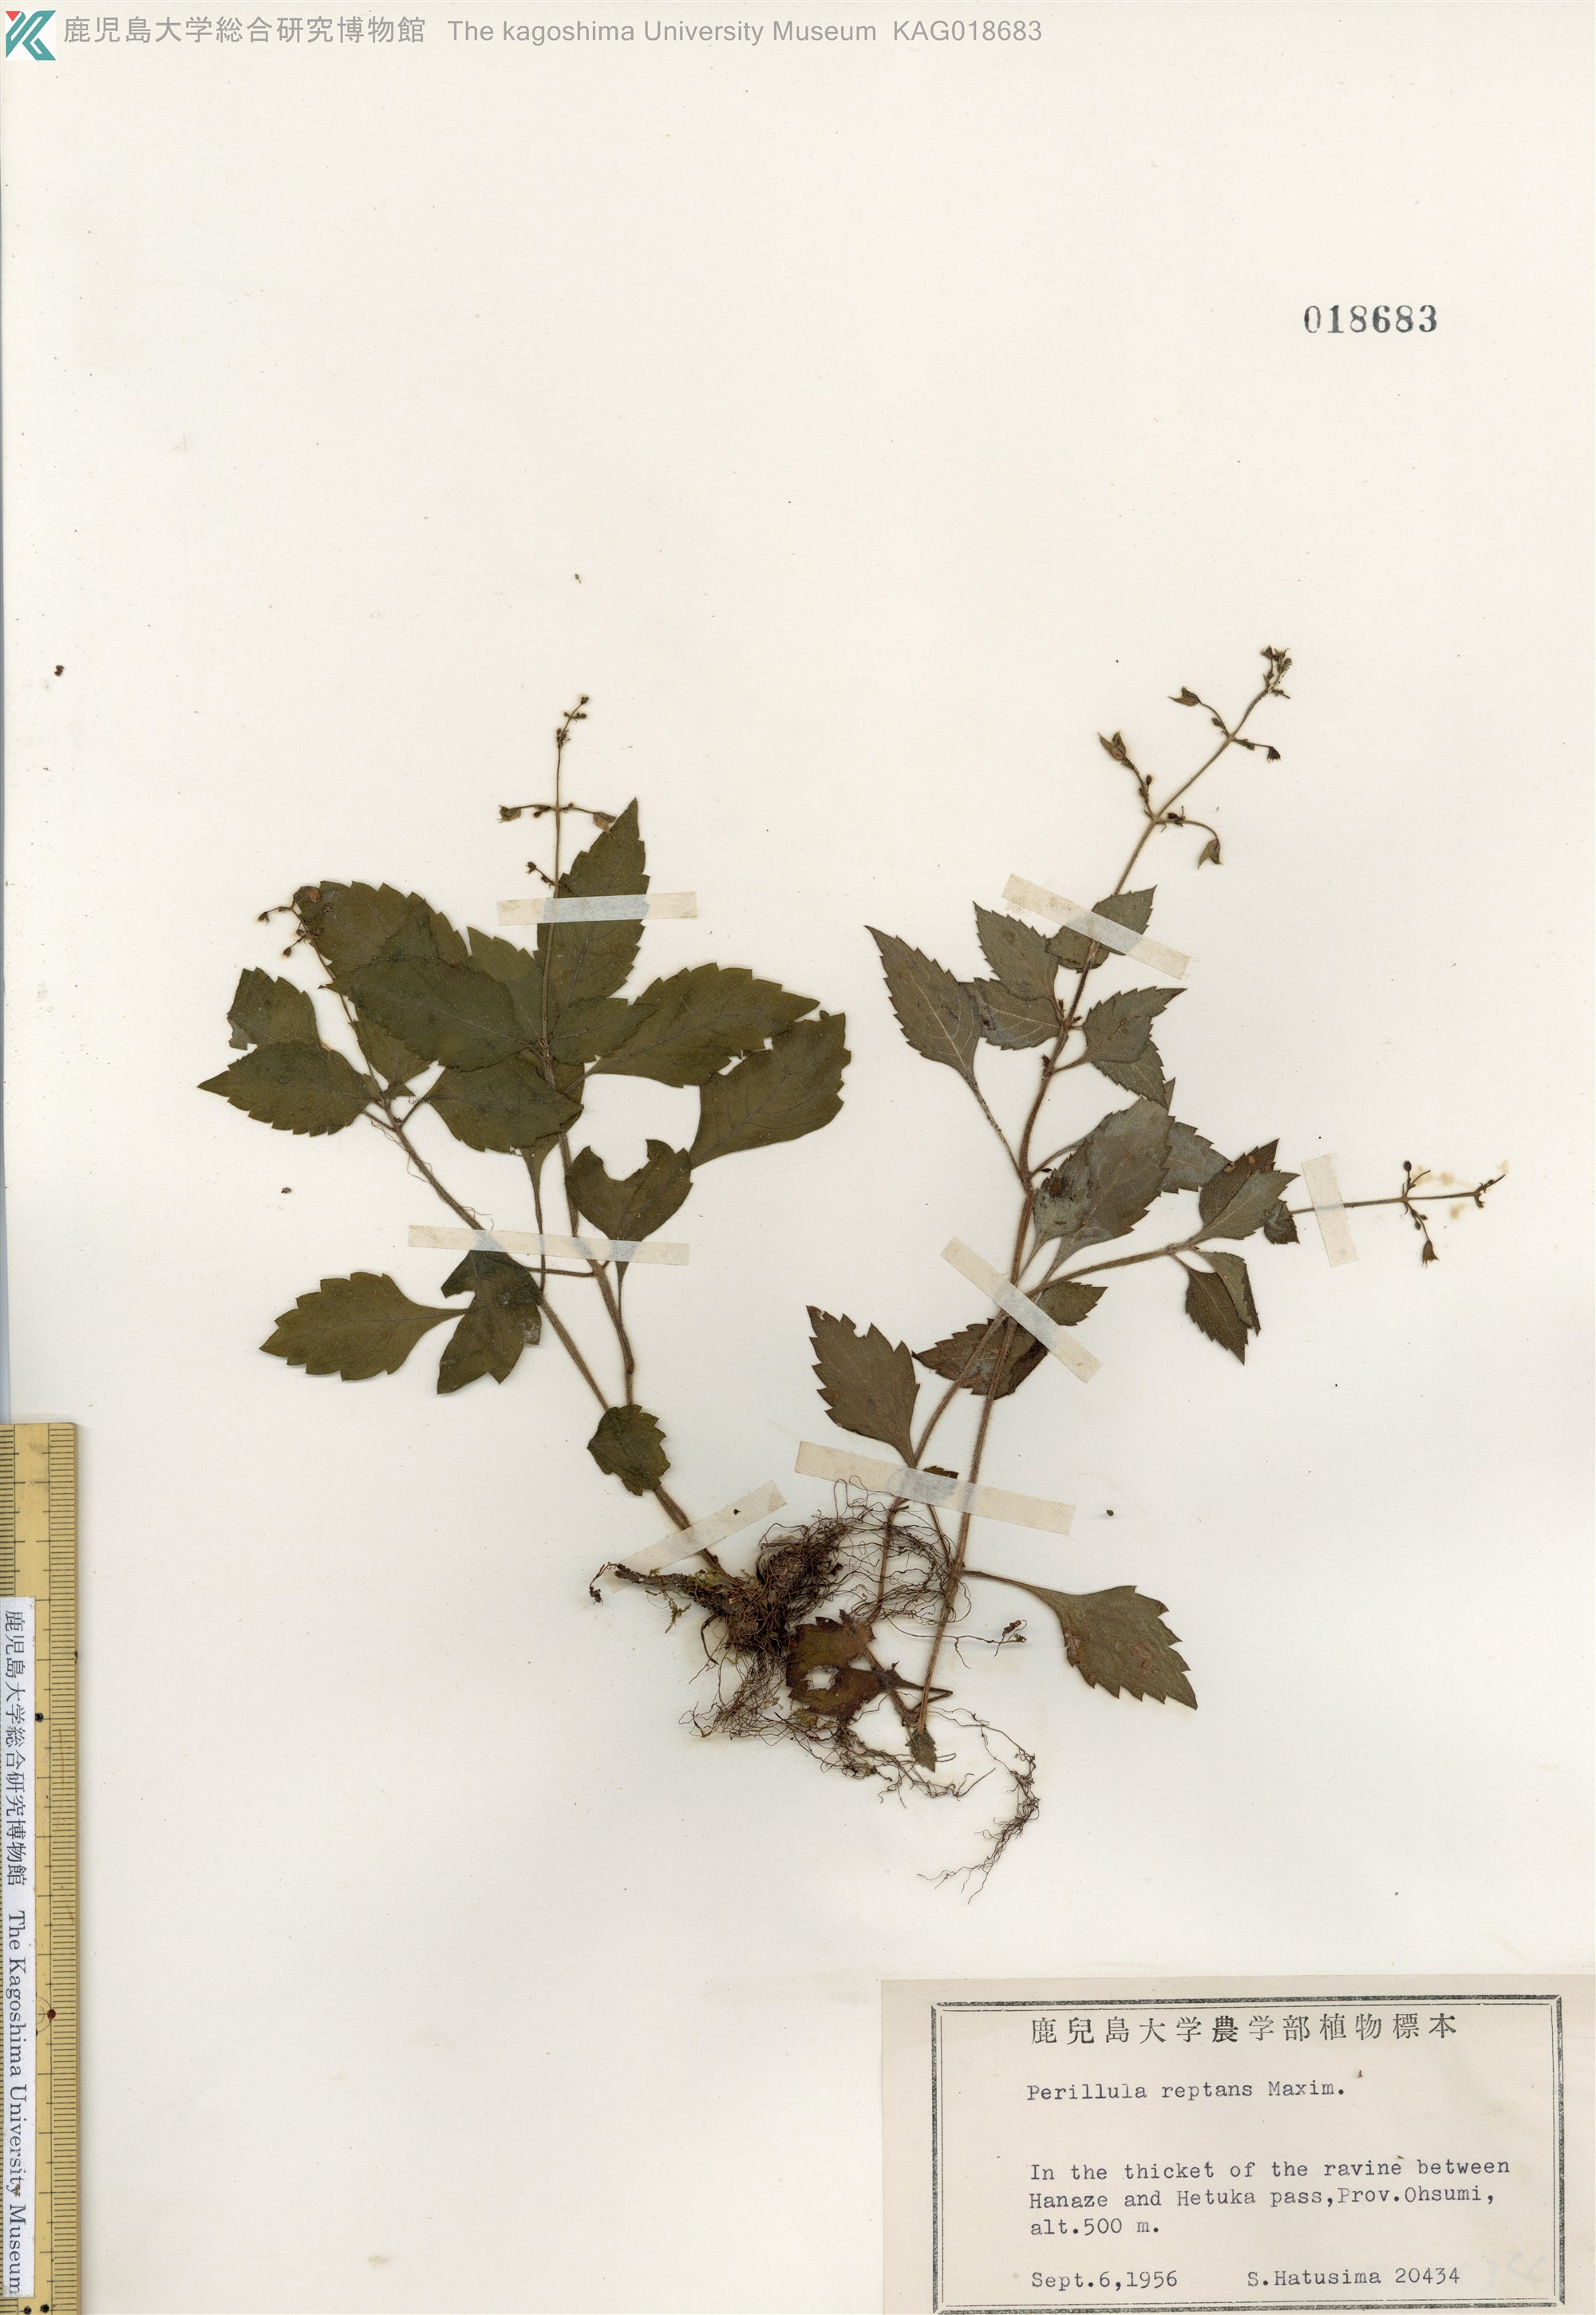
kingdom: Plantae
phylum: Tracheophyta
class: Magnoliopsida
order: Lamiales
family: Lamiaceae
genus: Perillula
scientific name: Perillula reptans
